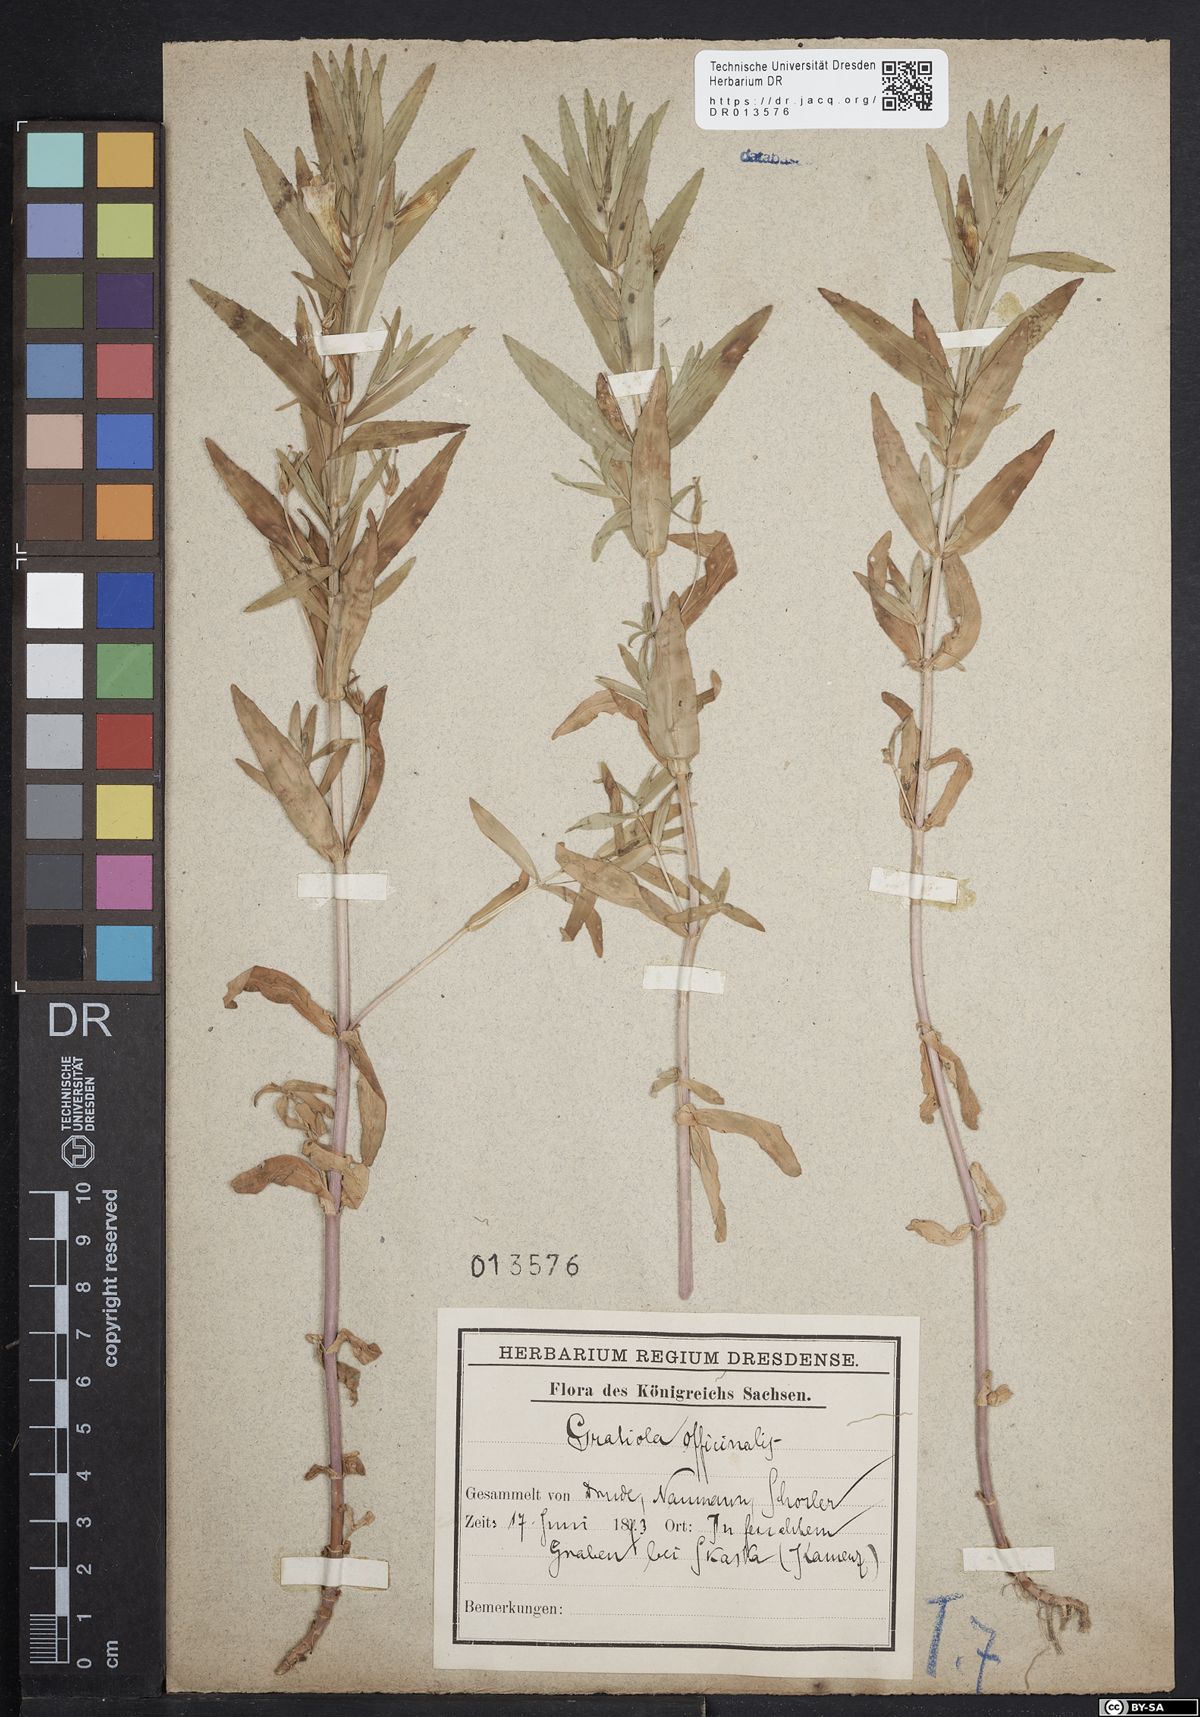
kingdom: Plantae
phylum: Tracheophyta
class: Magnoliopsida
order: Lamiales
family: Plantaginaceae
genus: Gratiola
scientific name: Gratiola officinalis
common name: Gratiola
